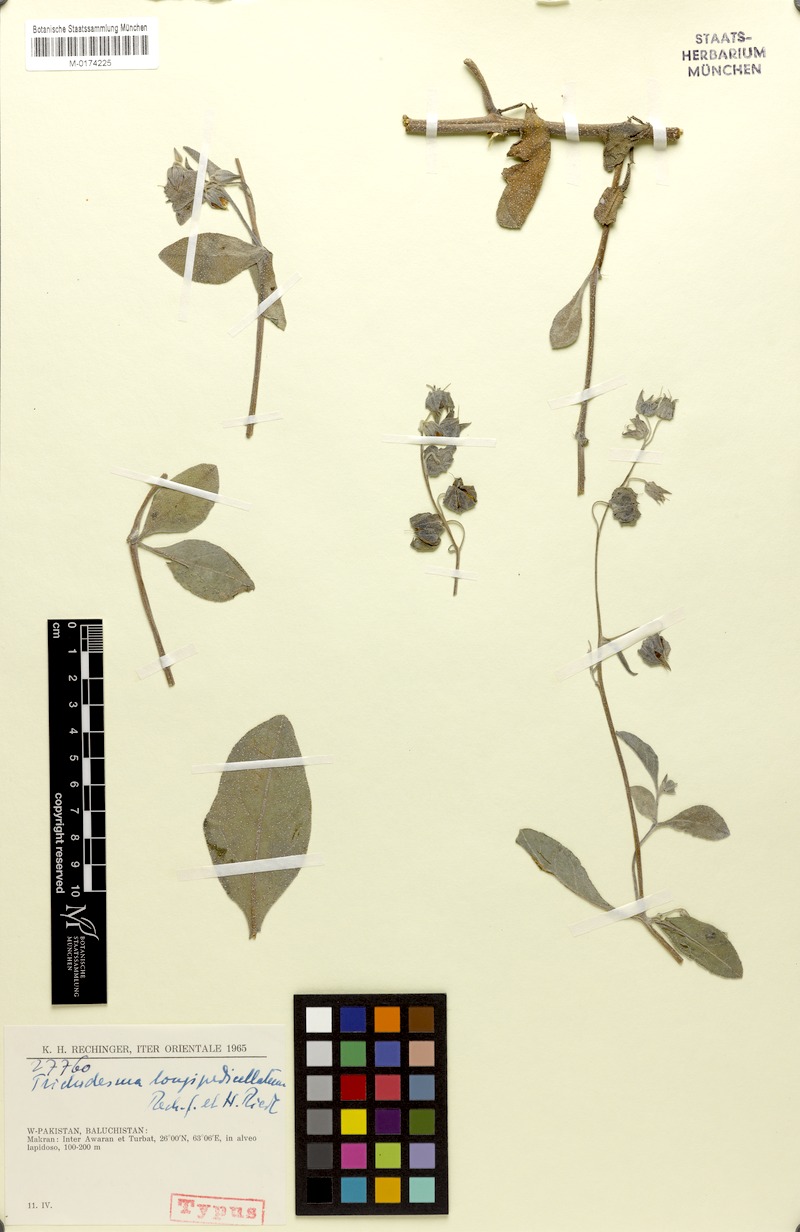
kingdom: Plantae
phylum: Tracheophyta
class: Magnoliopsida
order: Boraginales
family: Boraginaceae
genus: Trichodesma
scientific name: Trichodesma stocksii
